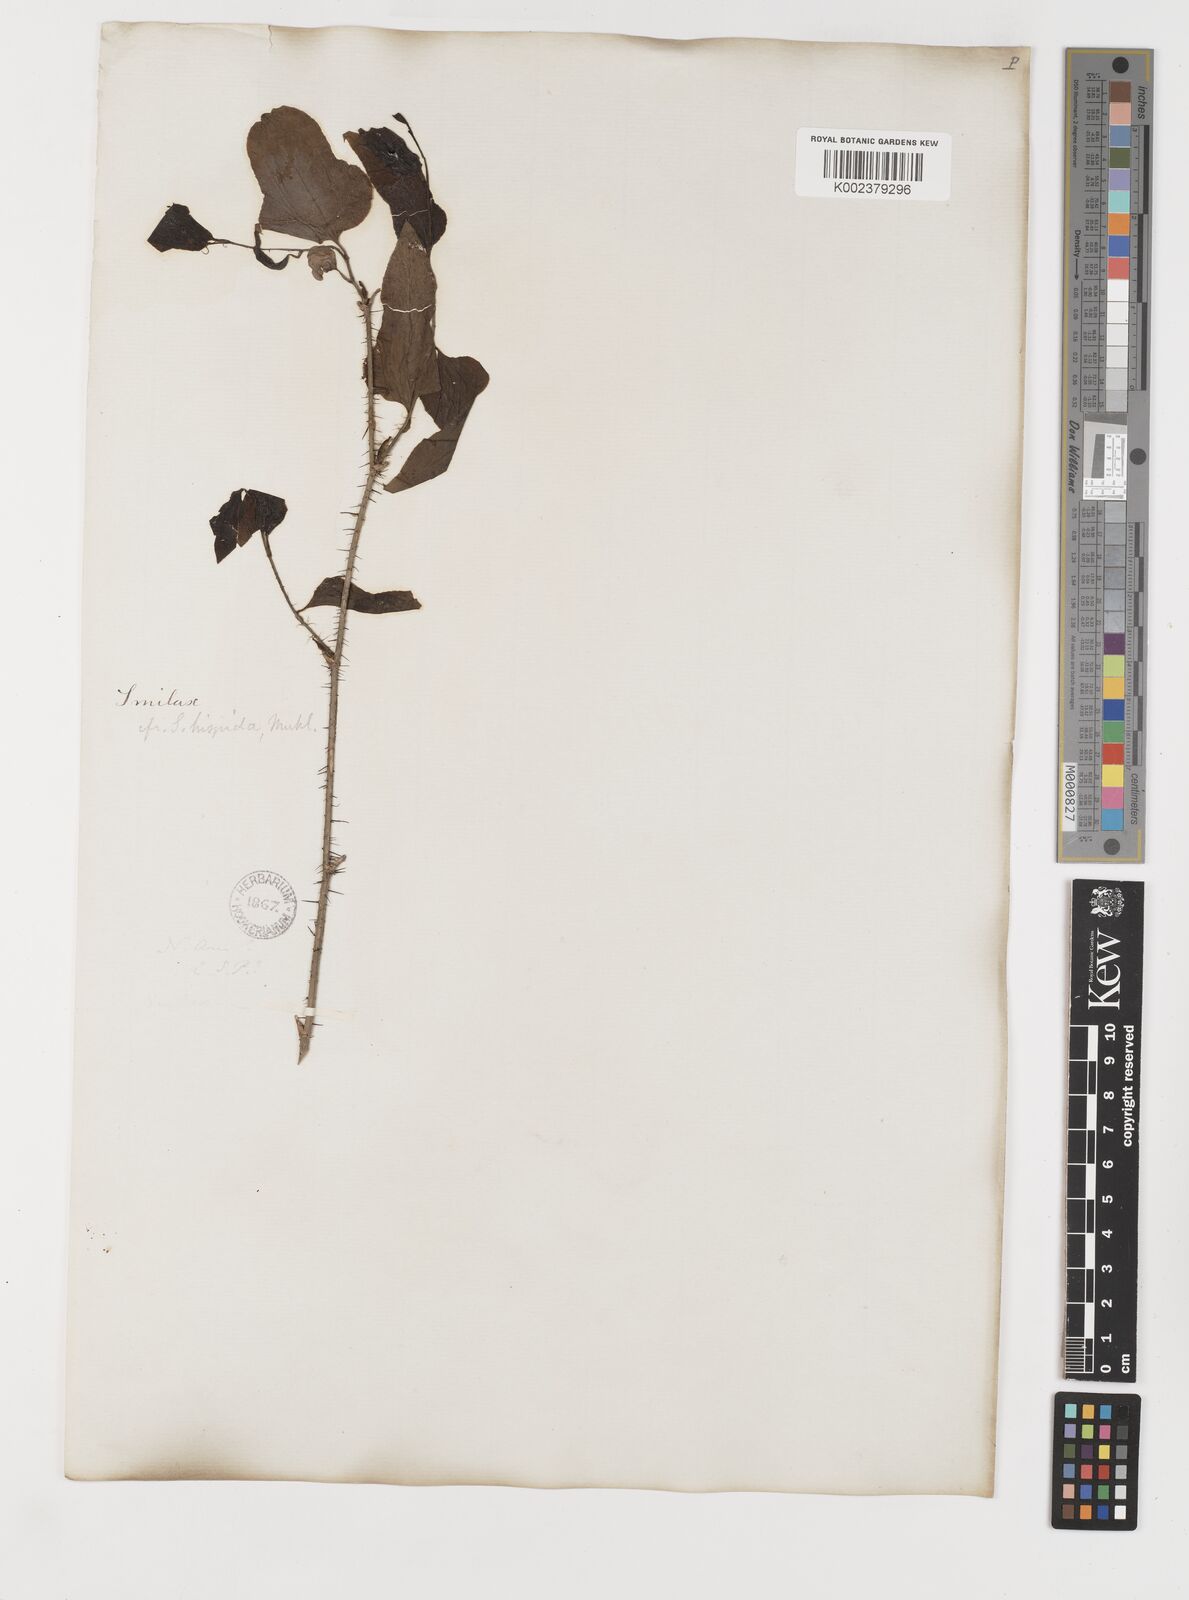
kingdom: Plantae
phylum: Tracheophyta
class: Liliopsida
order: Liliales
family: Smilacaceae
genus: Smilax
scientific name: Smilax tamnoides
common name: Hellfetter
